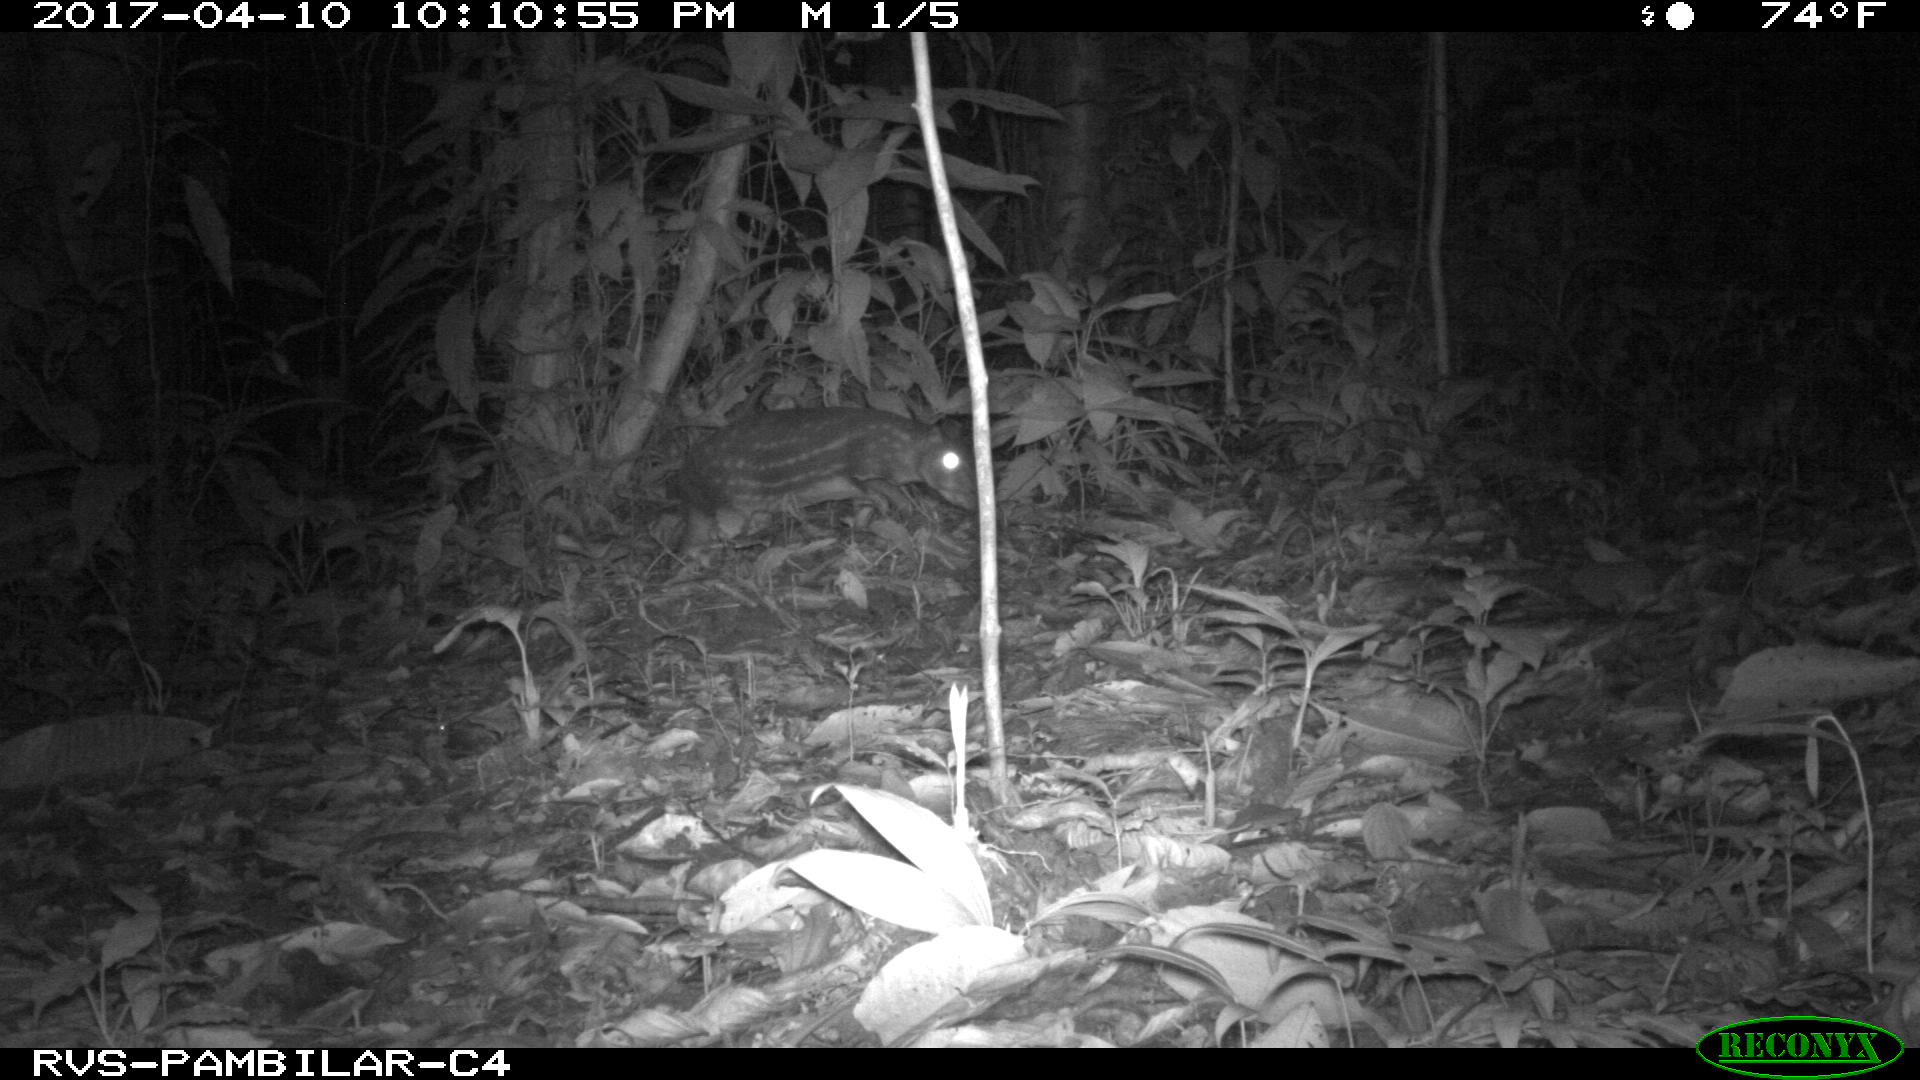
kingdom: Animalia
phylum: Chordata
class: Mammalia
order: Rodentia
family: Cuniculidae
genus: Cuniculus
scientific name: Cuniculus paca
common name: Lowland paca
